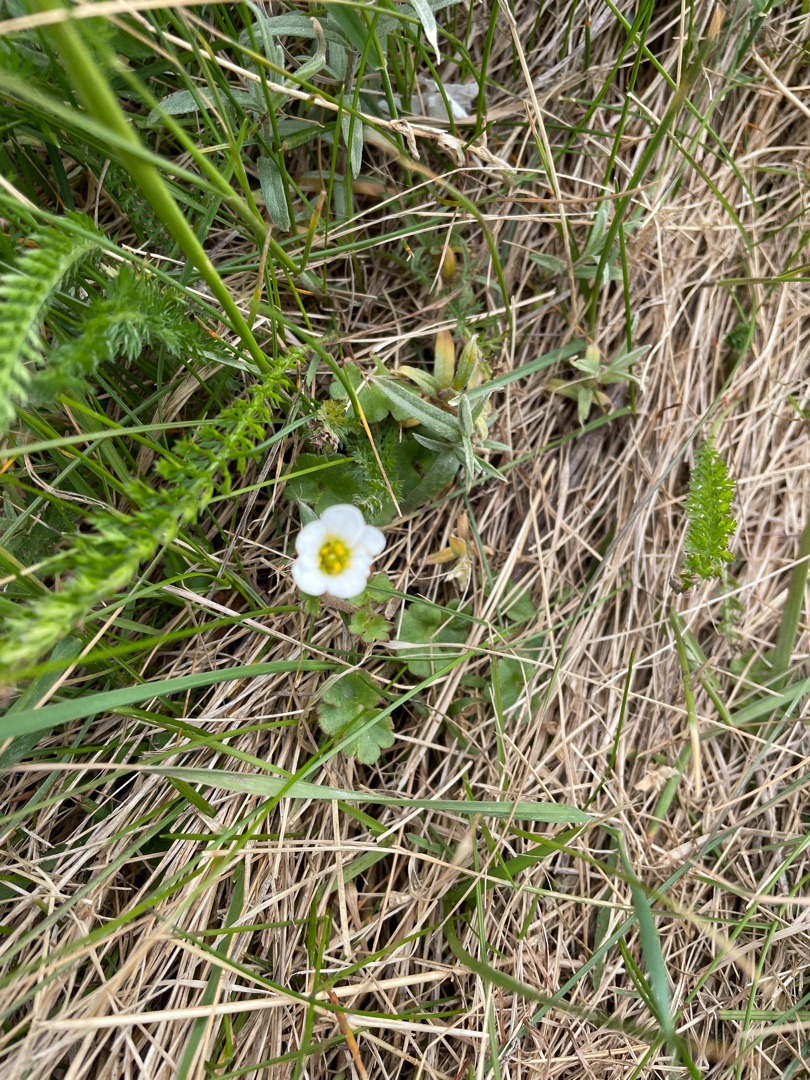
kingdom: Plantae
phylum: Tracheophyta
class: Magnoliopsida
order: Saxifragales
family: Saxifragaceae
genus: Saxifraga
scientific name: Saxifraga granulata
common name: Kornet stenbræk
